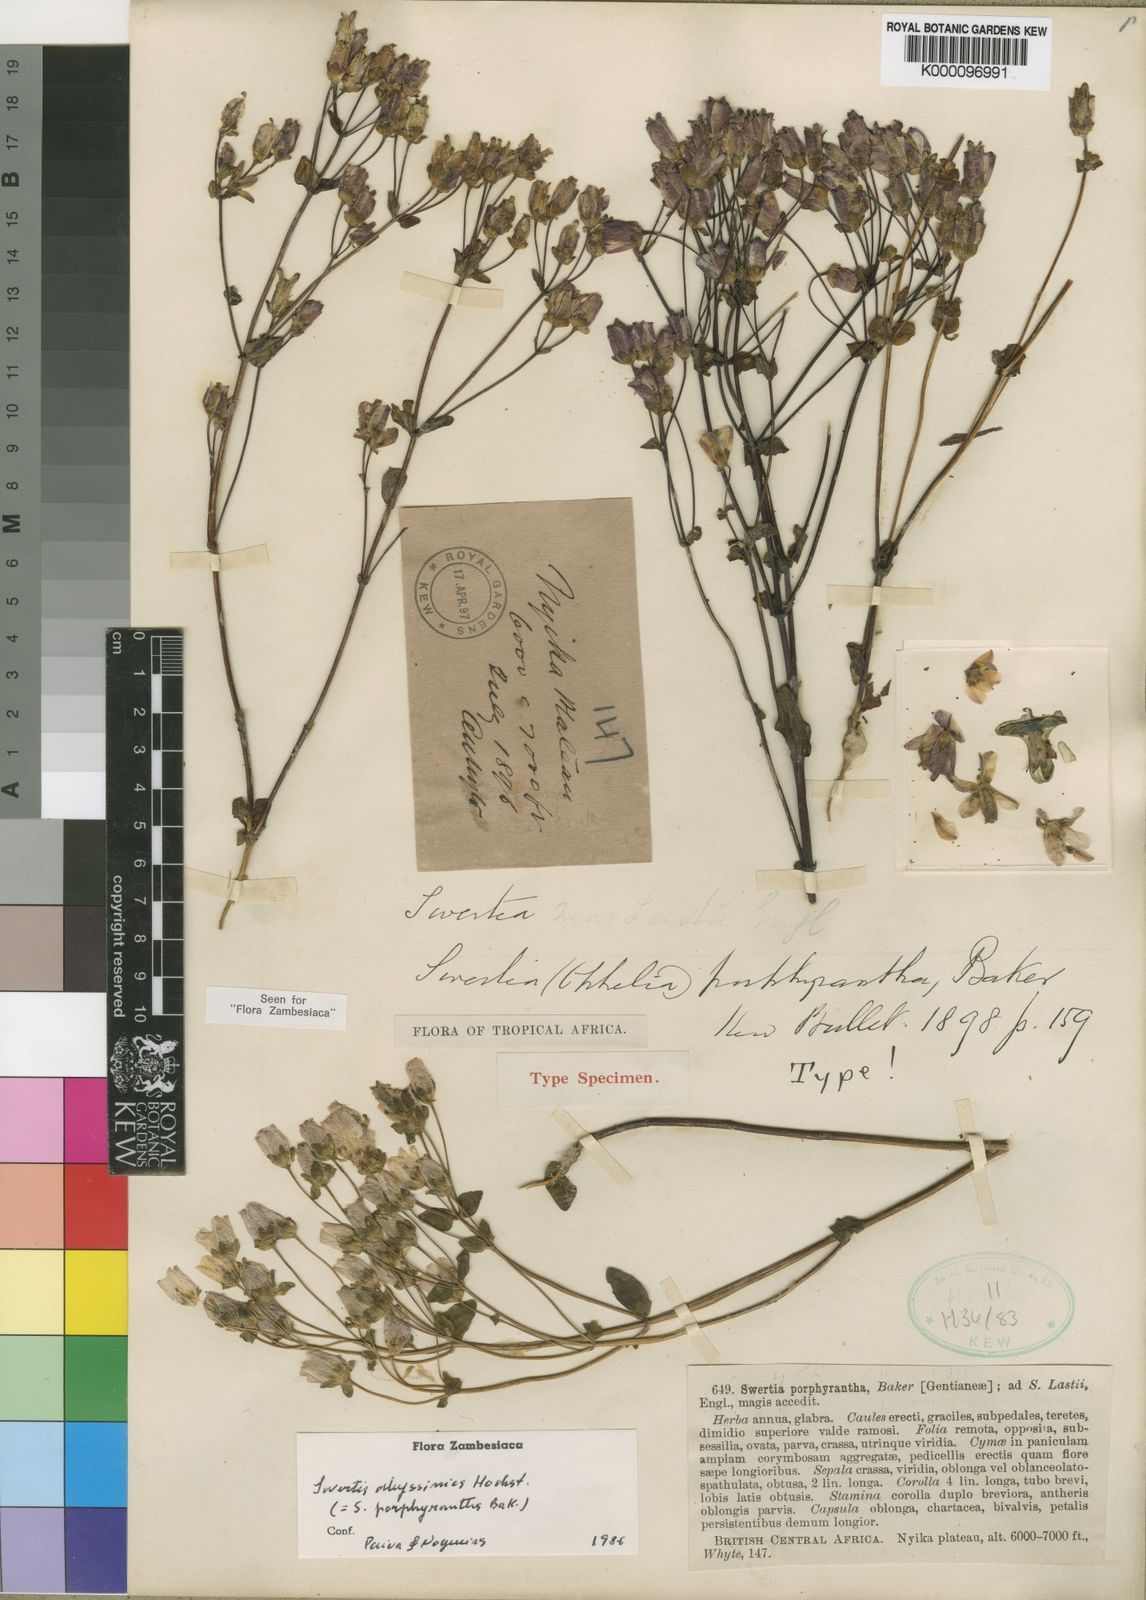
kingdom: Plantae
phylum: Tracheophyta
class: Magnoliopsida
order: Gentianales
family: Gentianaceae
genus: Swertia
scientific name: Swertia abyssinica
